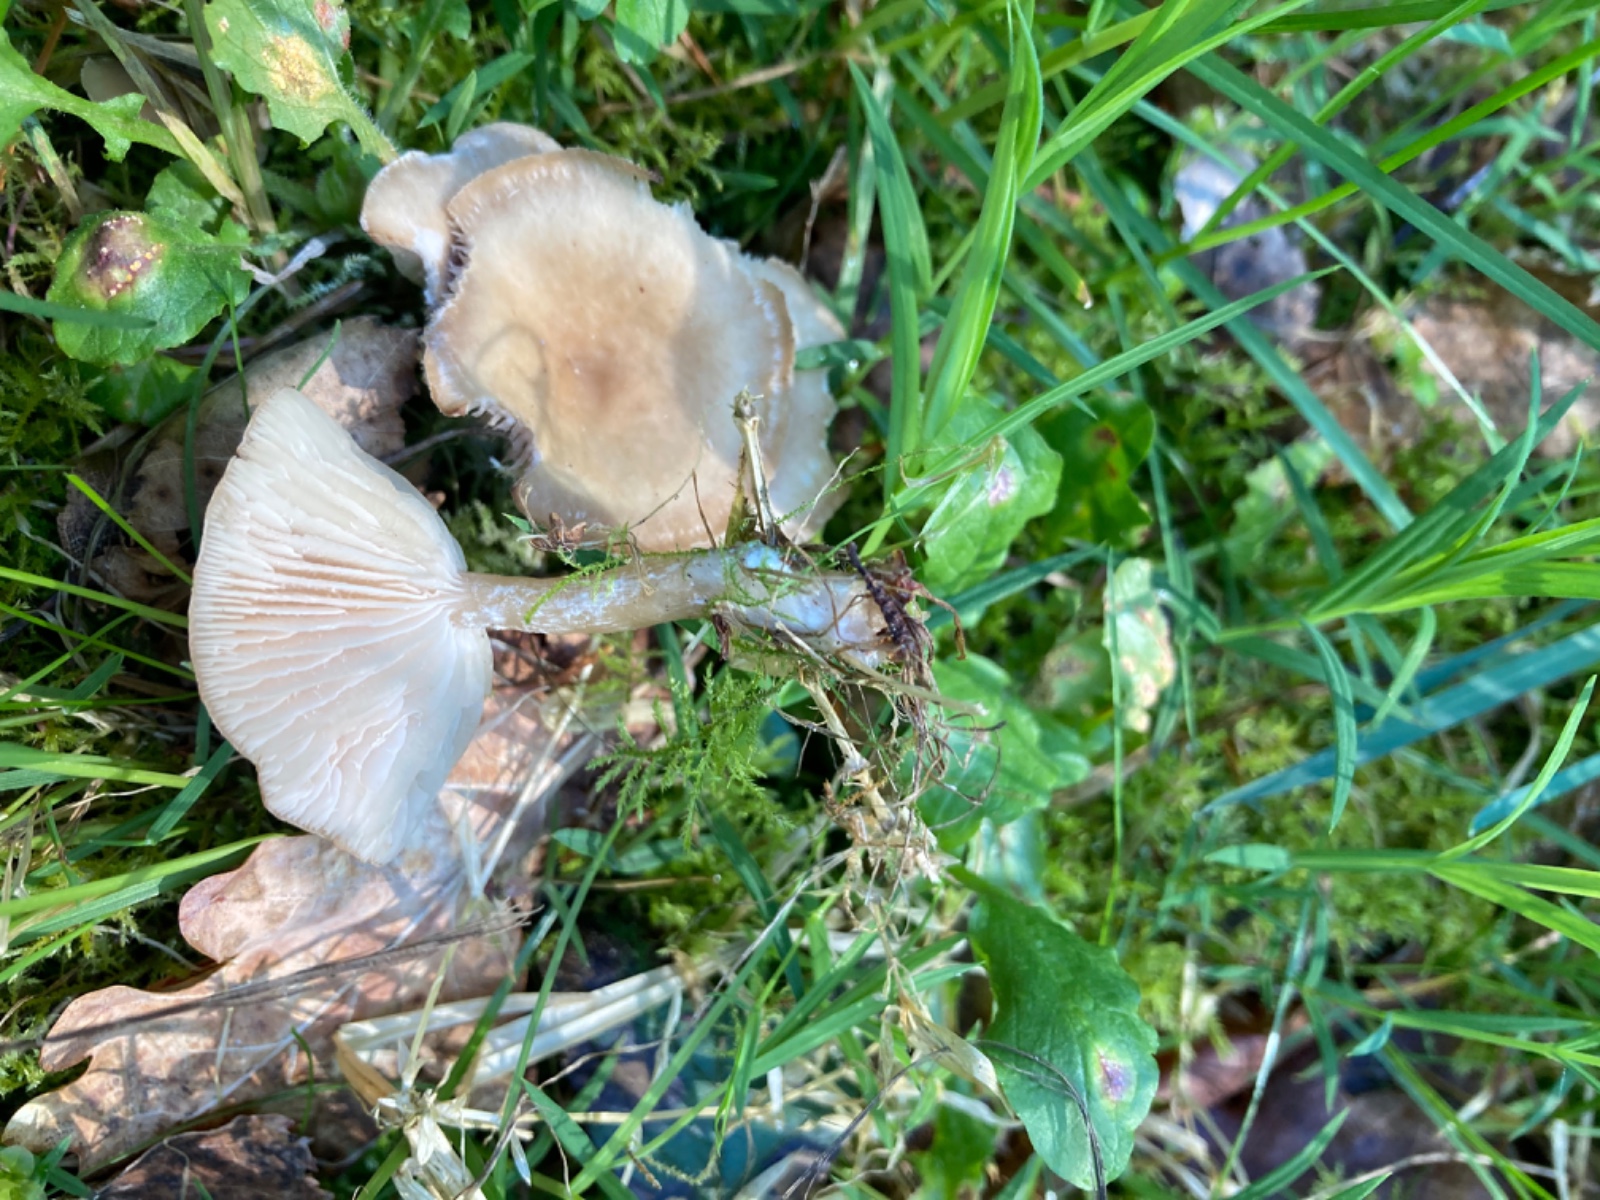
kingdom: Fungi
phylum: Basidiomycota
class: Agaricomycetes
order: Agaricales
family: Tricholomataceae
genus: Clitocybe
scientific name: Clitocybe fragrans
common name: vellugtende tragthat
